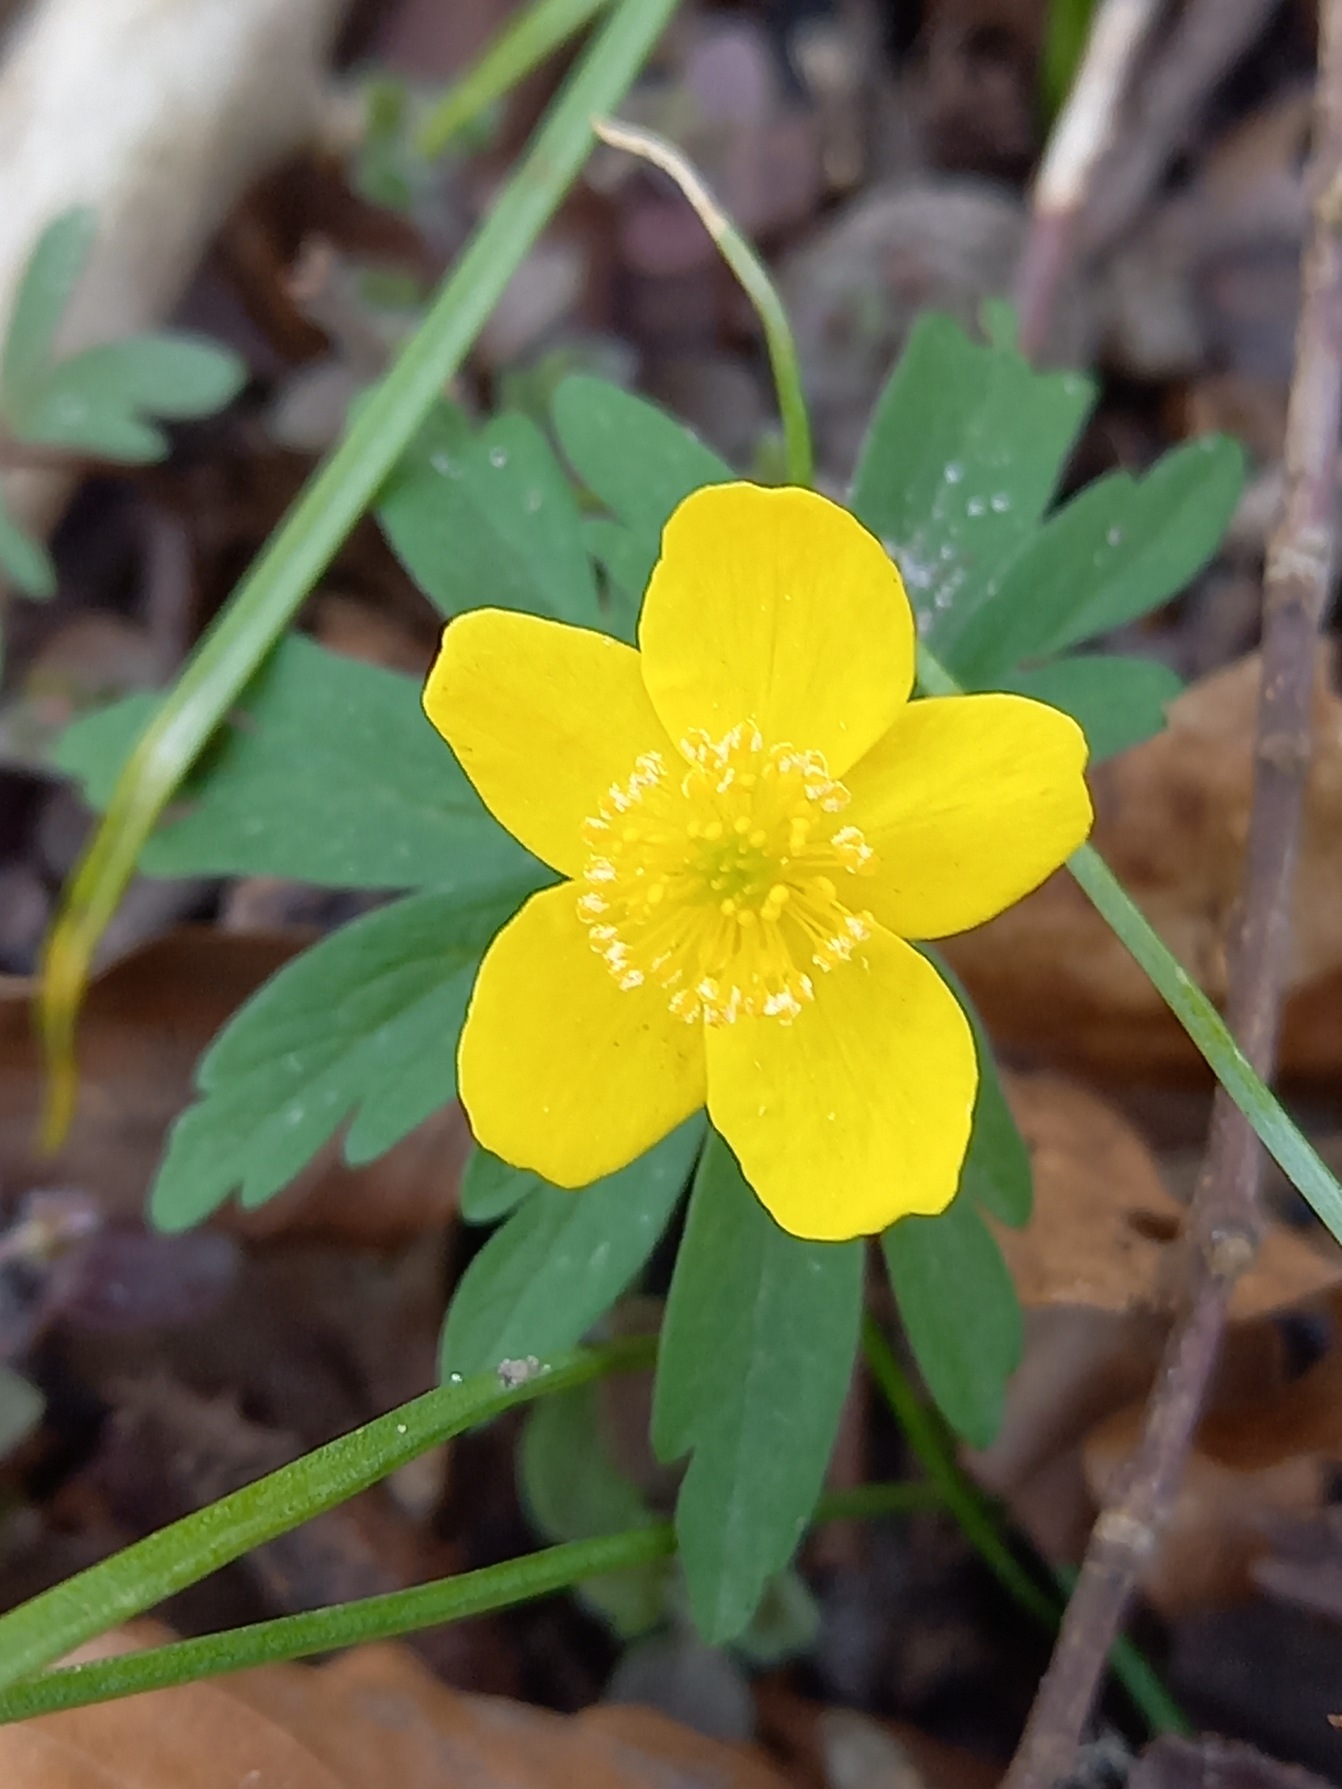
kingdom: Plantae
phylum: Tracheophyta
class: Magnoliopsida
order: Ranunculales
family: Ranunculaceae
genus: Anemone
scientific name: Anemone ranunculoides
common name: Gul anemone
